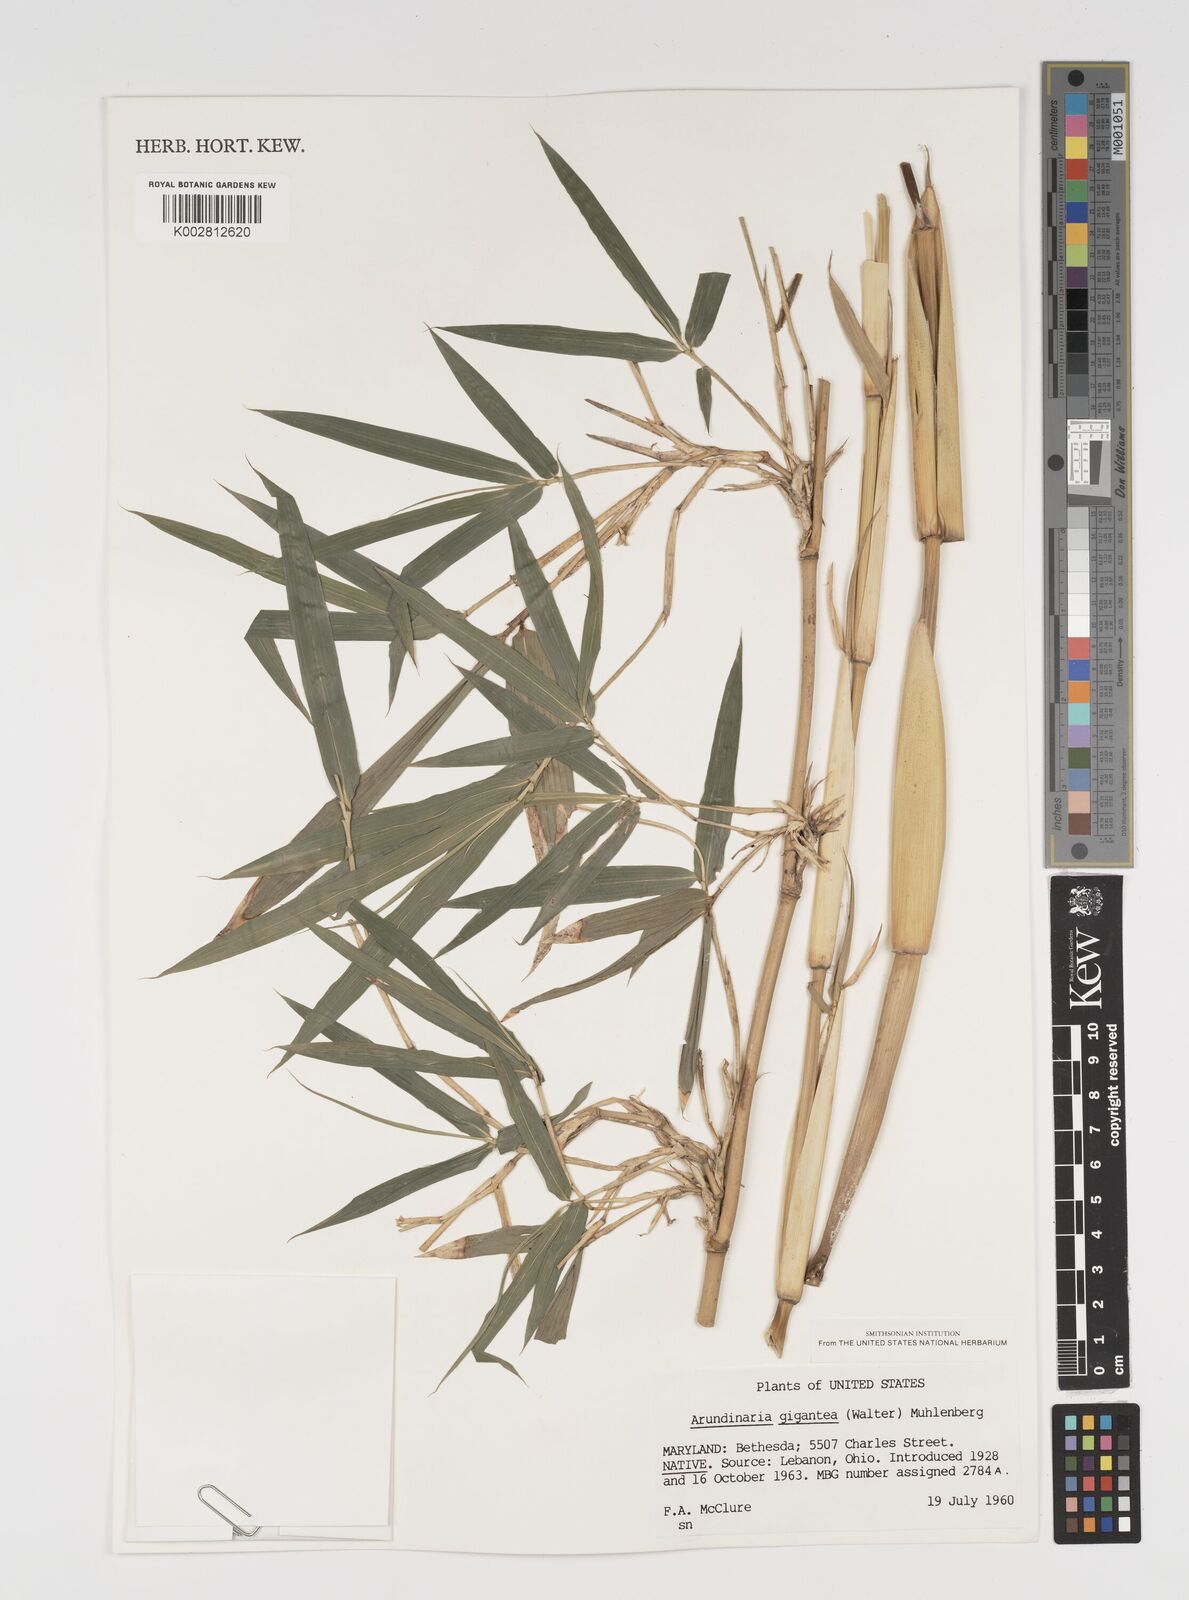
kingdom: Plantae
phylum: Tracheophyta
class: Liliopsida
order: Poales
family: Poaceae
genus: Arundinaria
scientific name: Arundinaria
